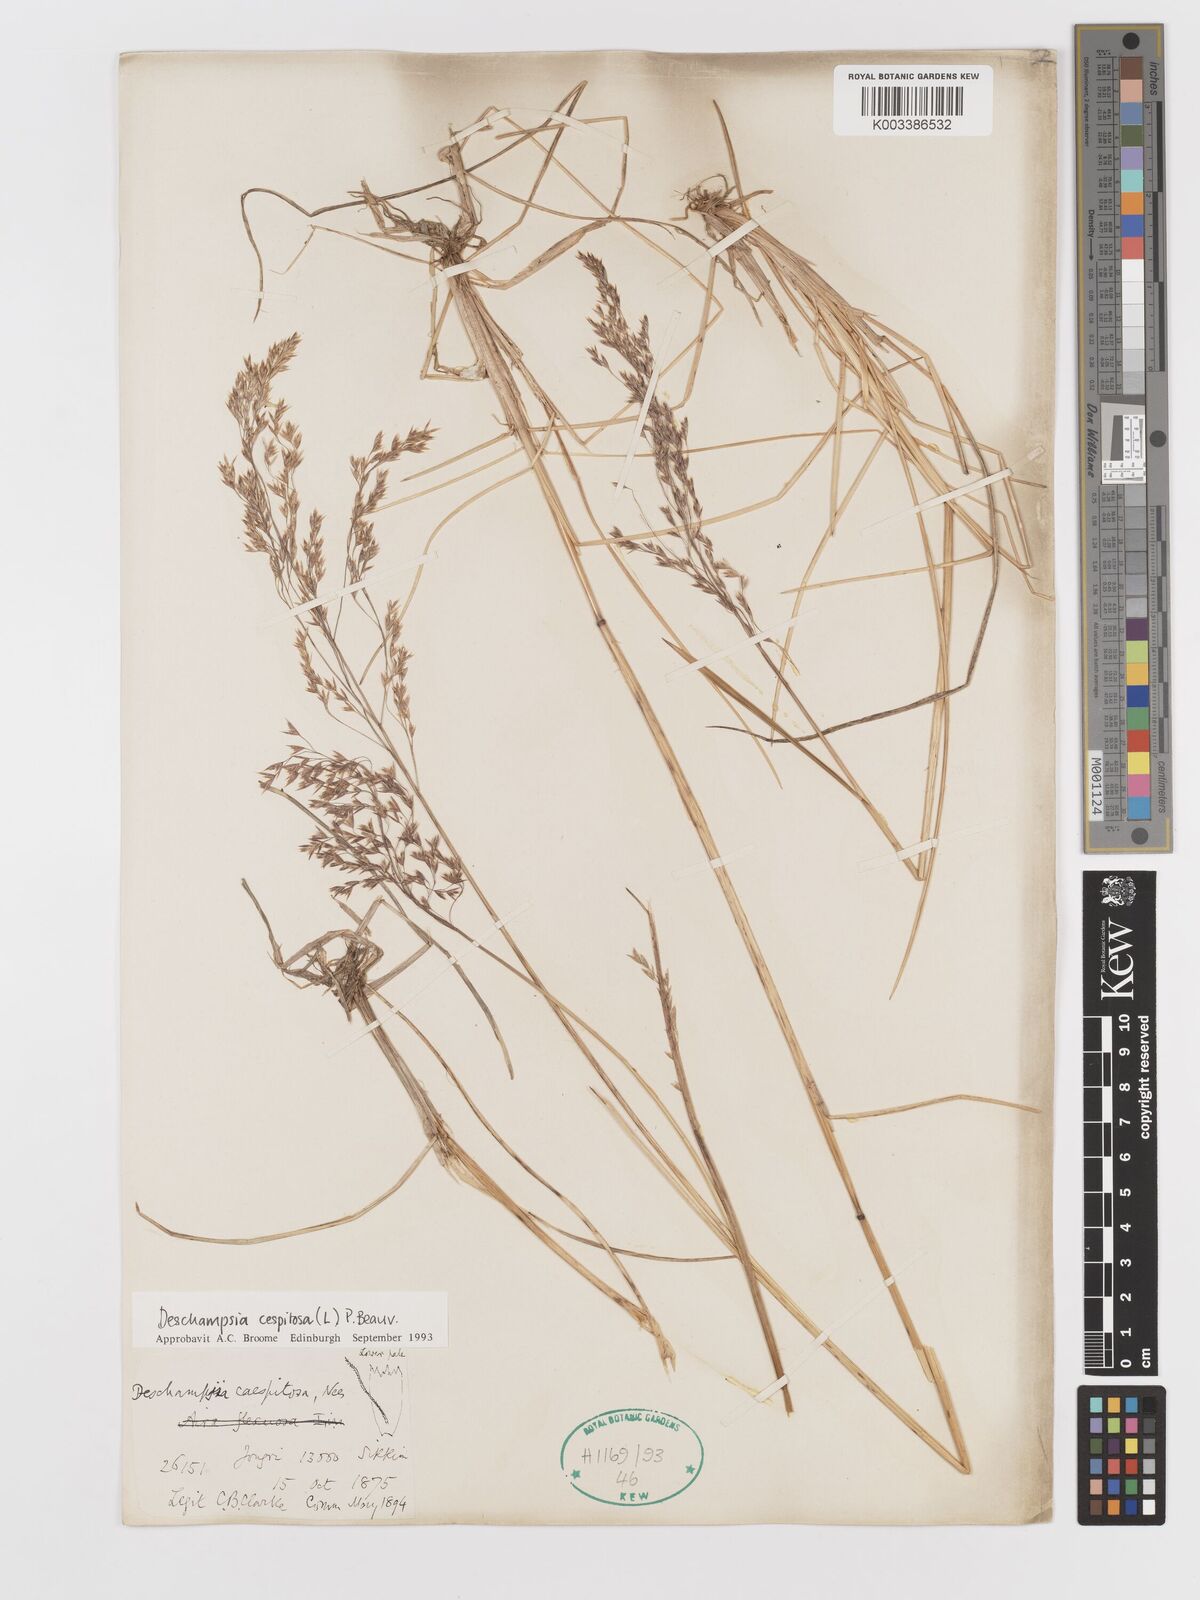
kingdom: Plantae
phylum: Tracheophyta
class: Liliopsida
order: Poales
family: Poaceae
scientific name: Poaceae
